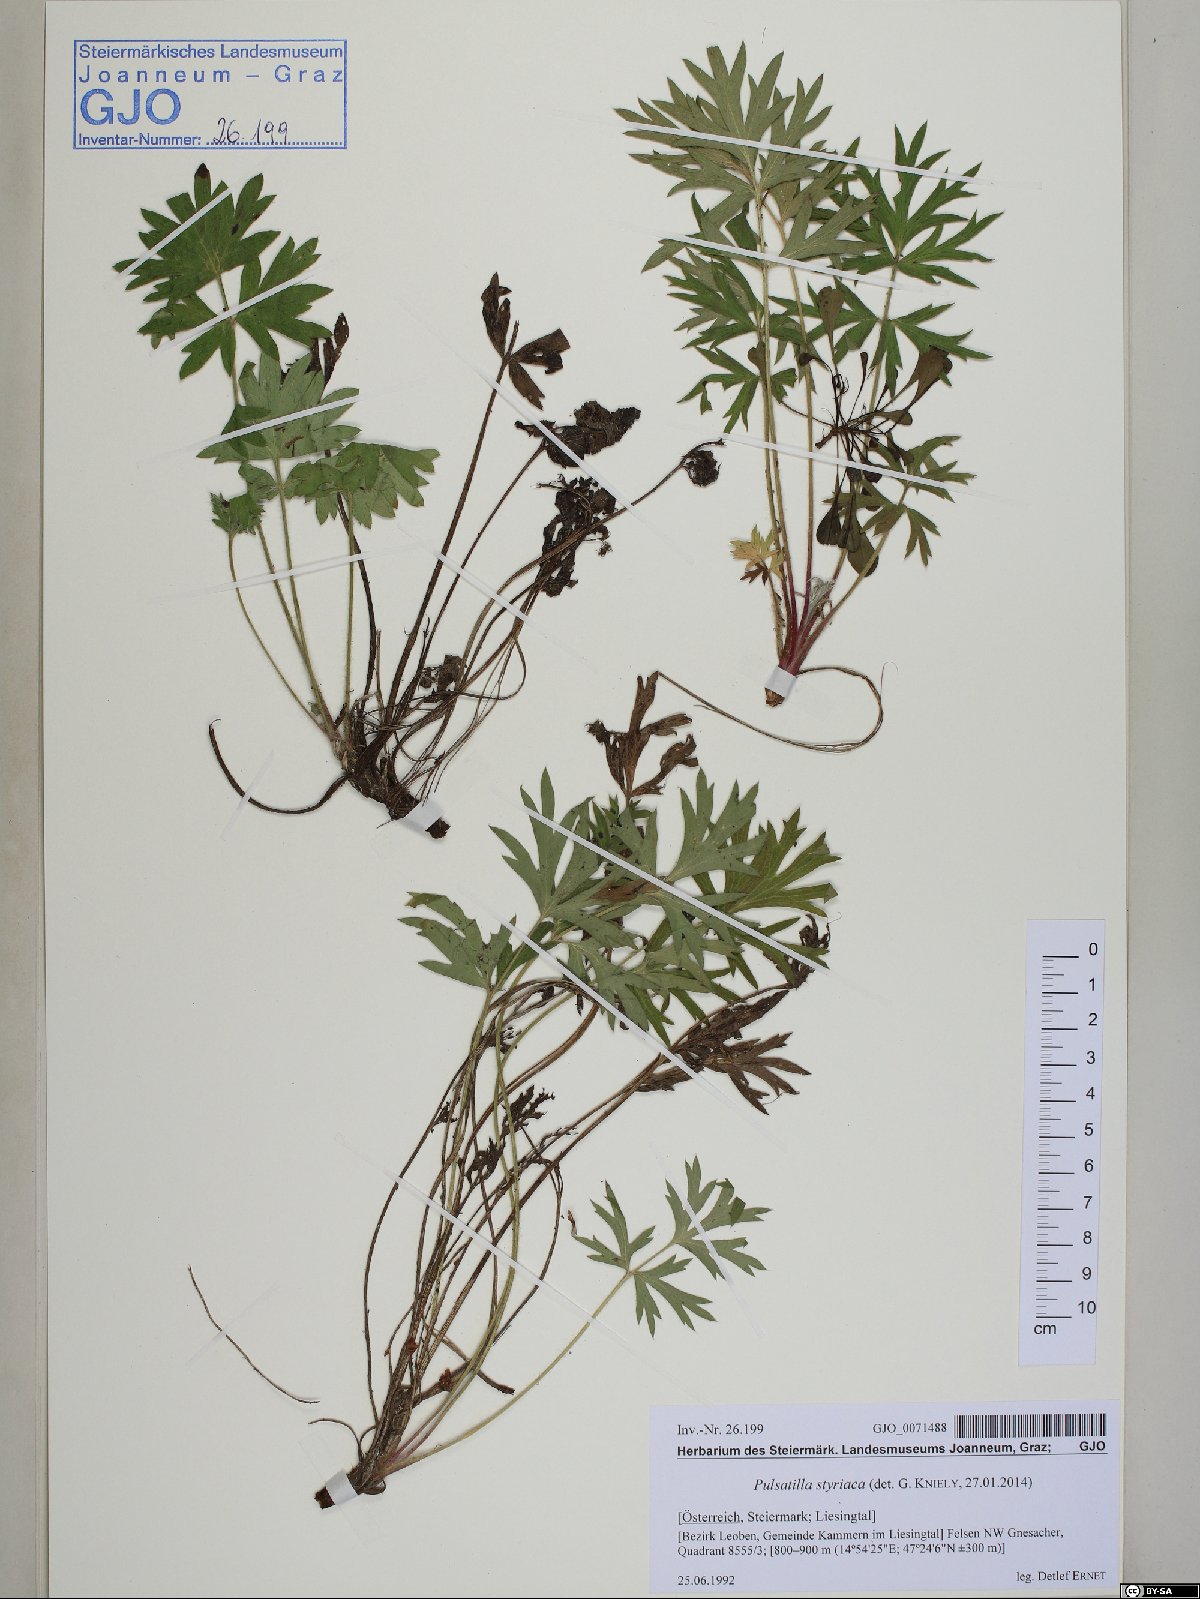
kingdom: Plantae
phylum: Tracheophyta
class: Magnoliopsida
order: Ranunculales
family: Ranunculaceae
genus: Pulsatilla
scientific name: Pulsatilla halleri
